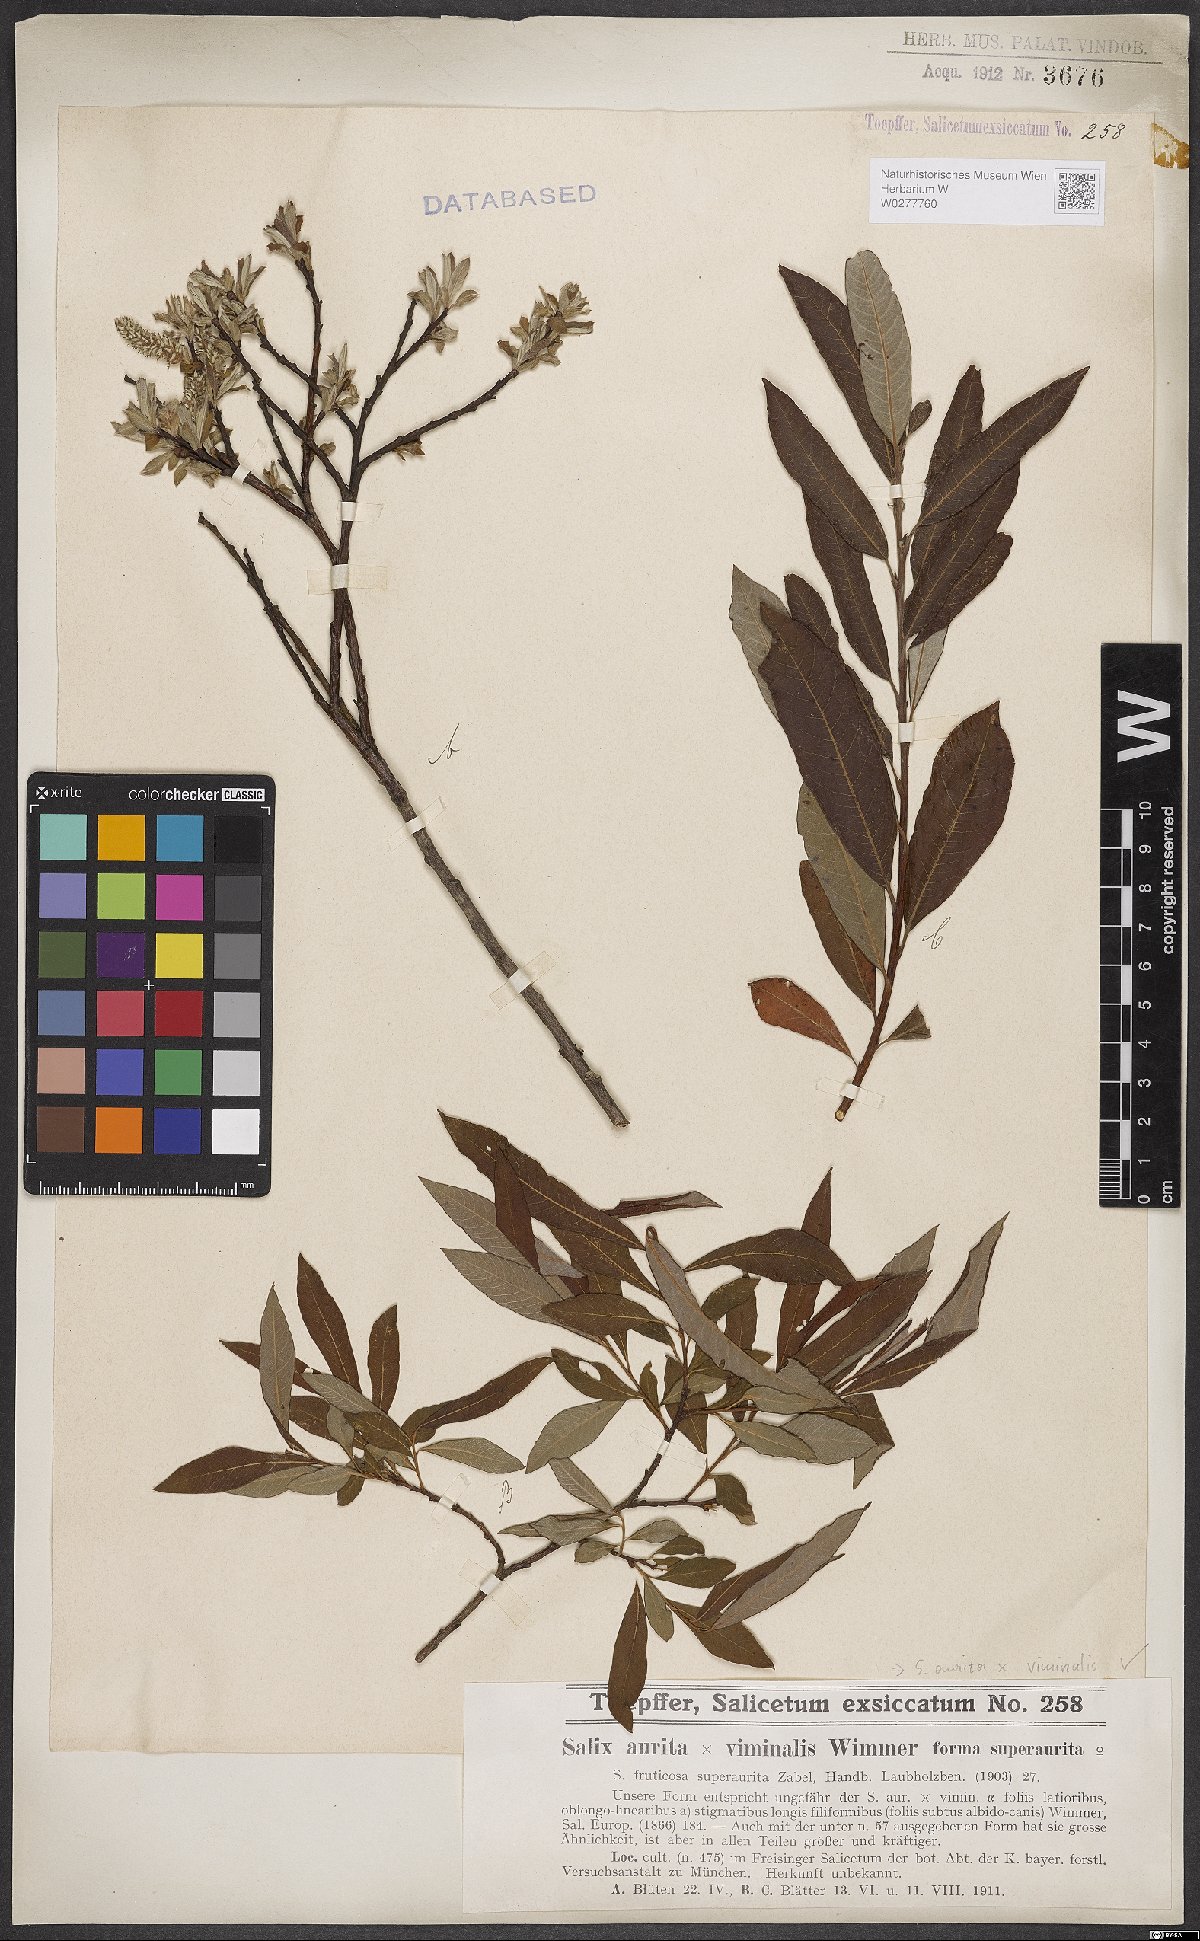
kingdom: Plantae
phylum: Tracheophyta
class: Magnoliopsida
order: Malpighiales
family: Salicaceae
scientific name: Salicaceae
